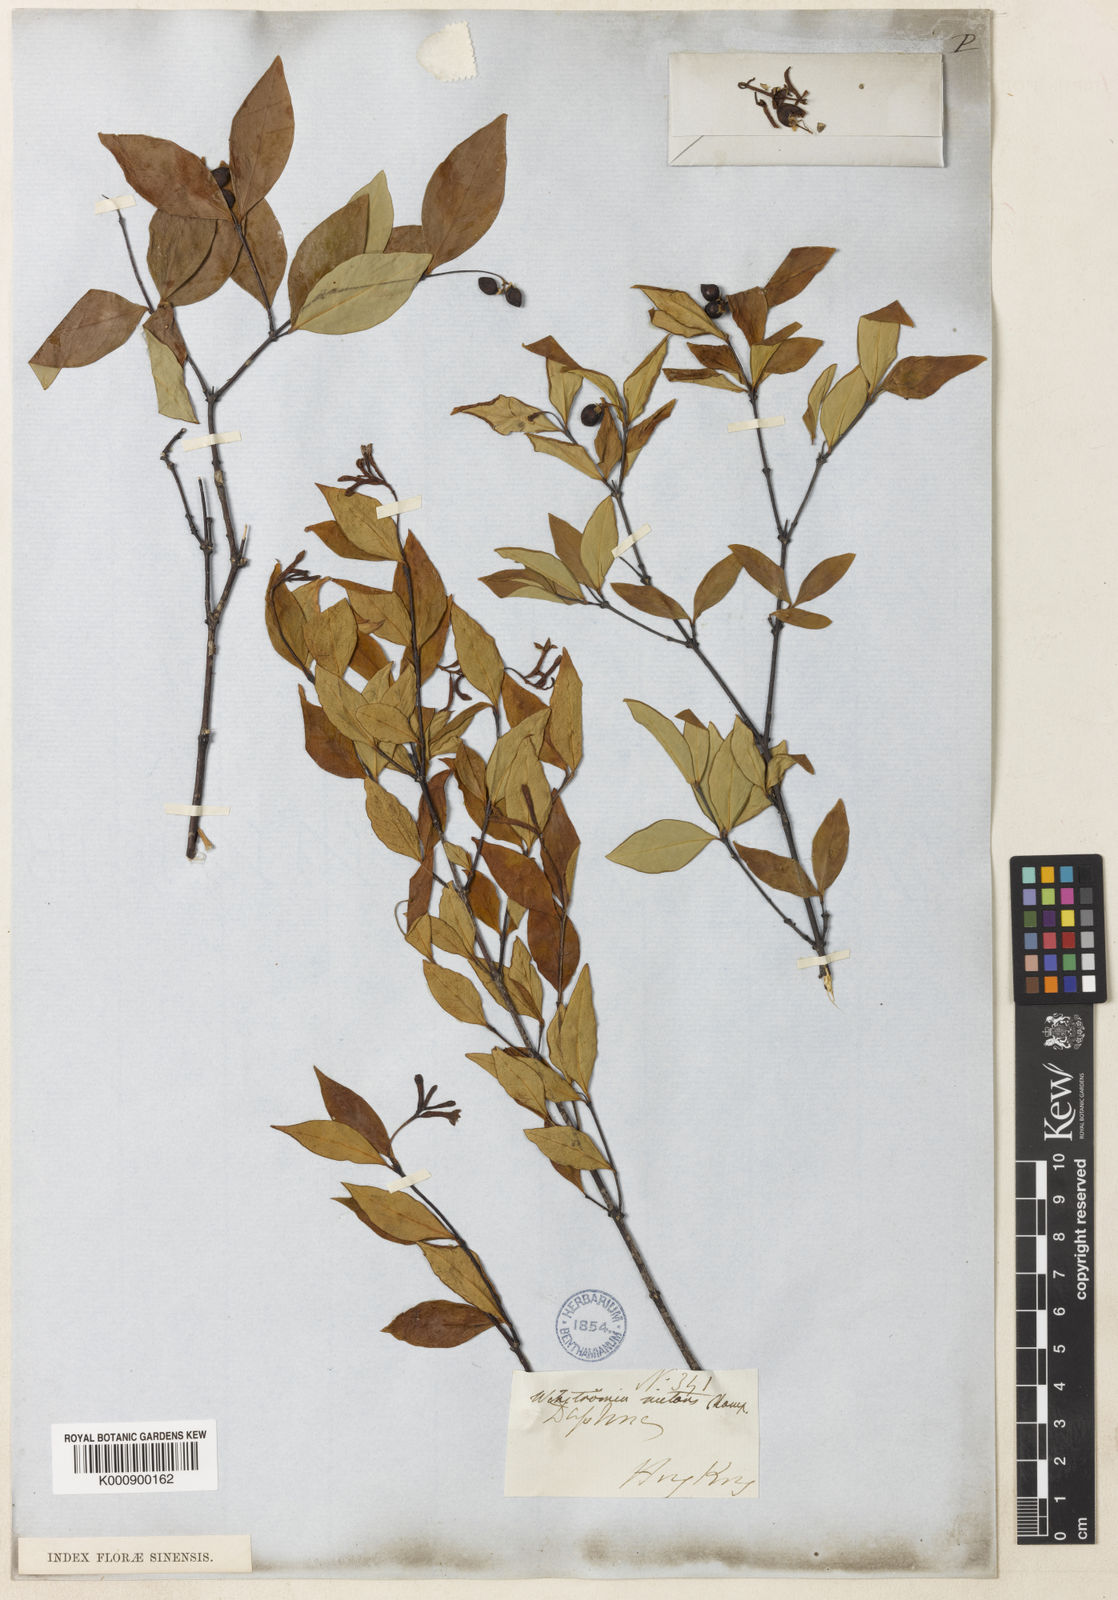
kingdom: Plantae
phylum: Tracheophyta
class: Magnoliopsida
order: Malvales
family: Thymelaeaceae
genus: Wikstroemia
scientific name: Wikstroemia nutans
